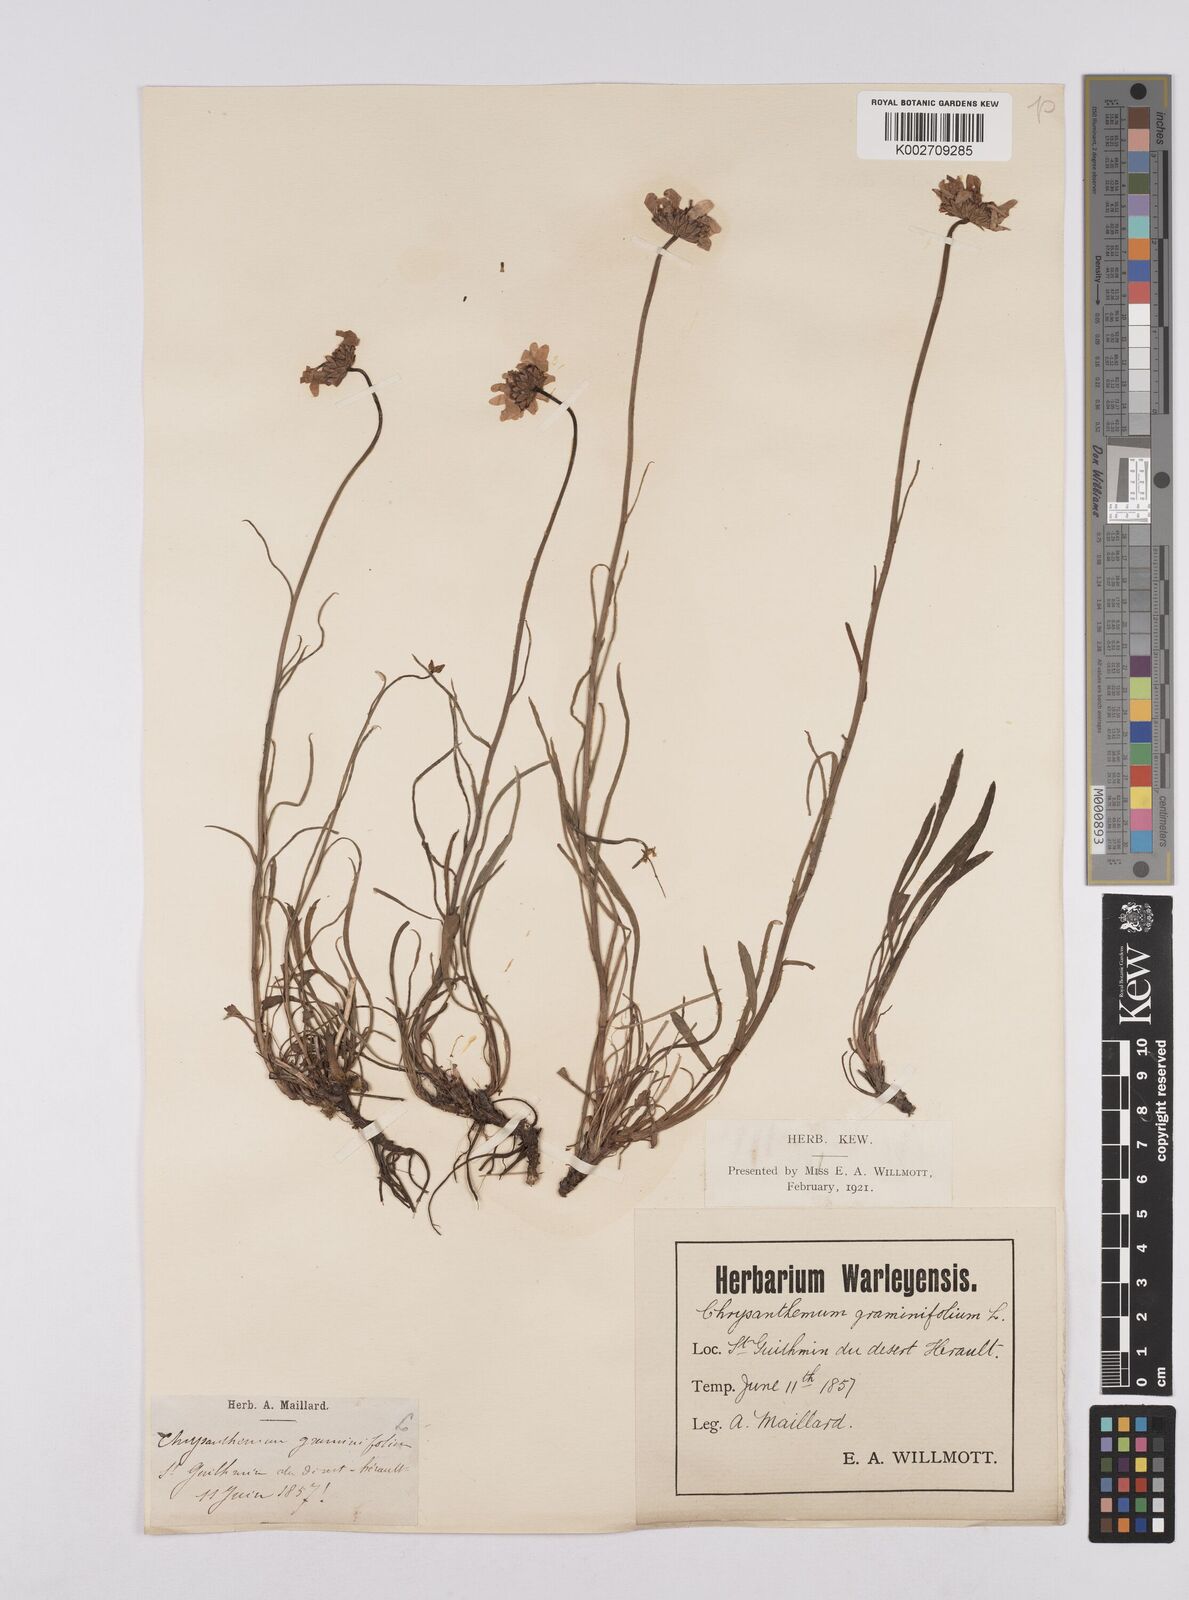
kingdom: Plantae
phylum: Tracheophyta
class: Magnoliopsida
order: Asterales
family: Asteraceae
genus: Leucanthemum
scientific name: Leucanthemum chloroticum
